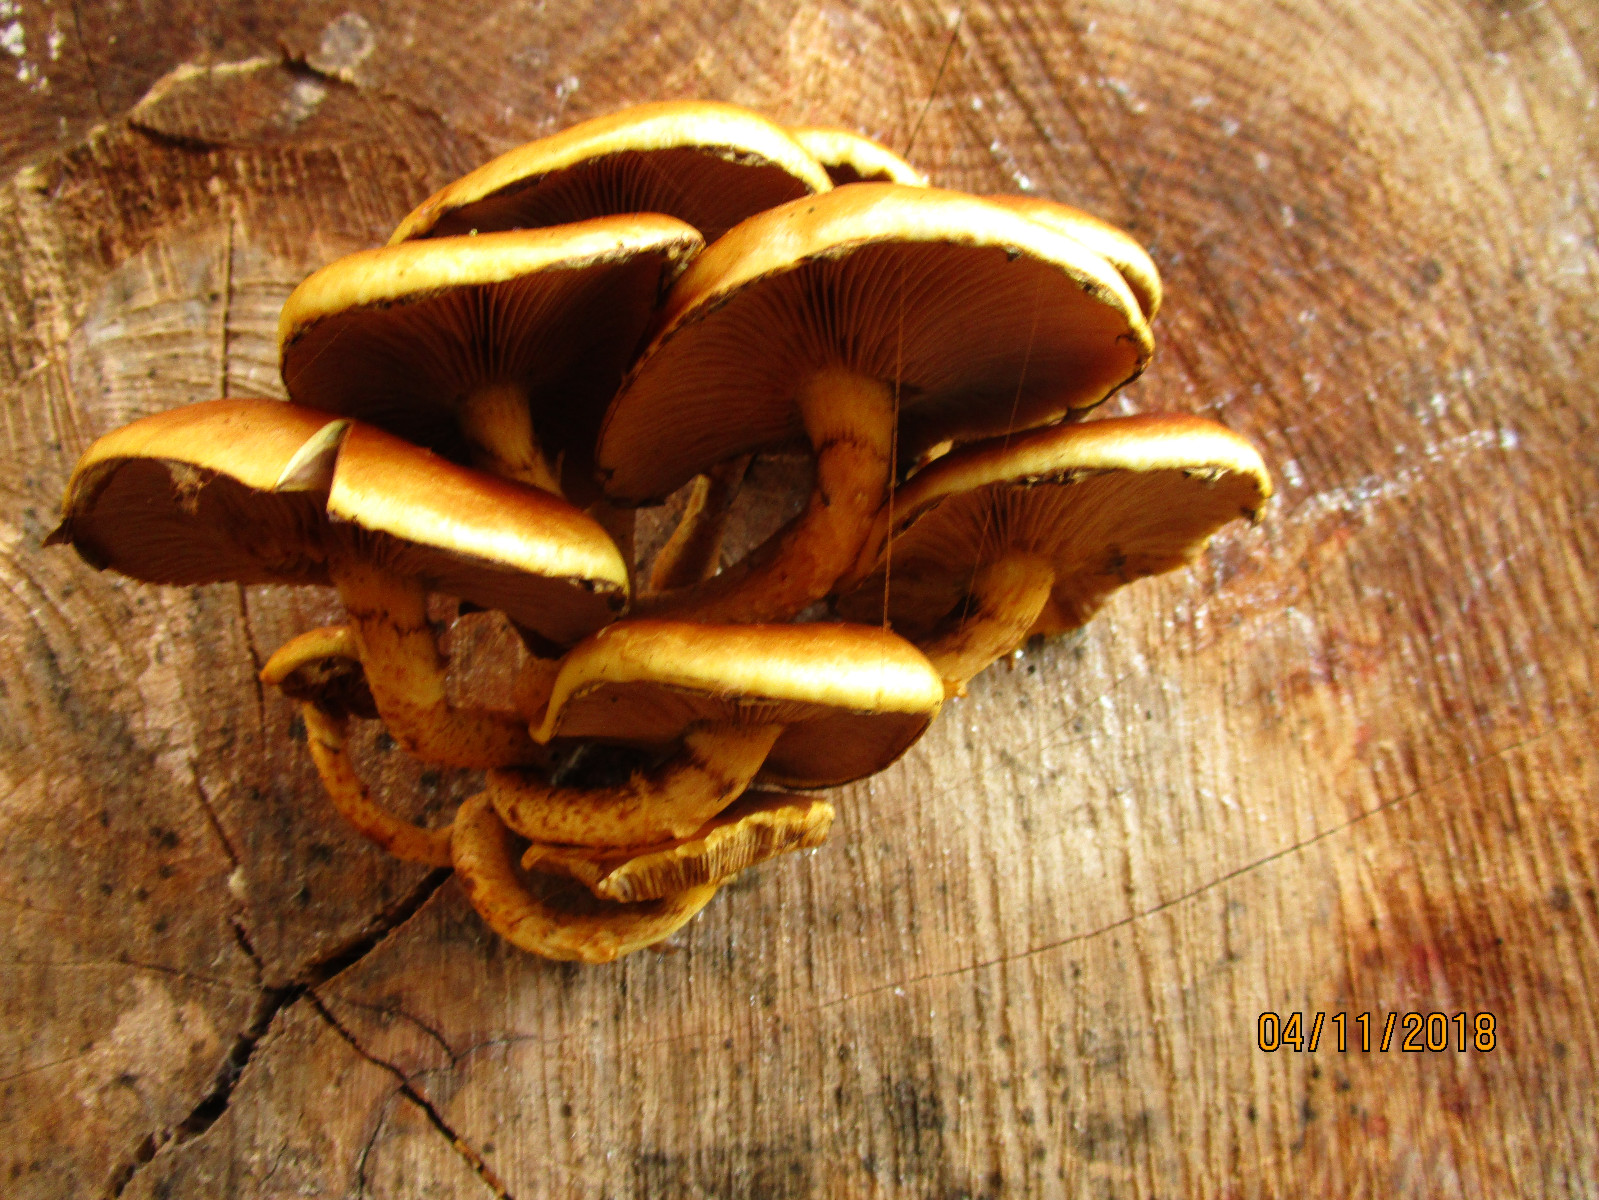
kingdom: Fungi
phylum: Basidiomycota
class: Agaricomycetes
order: Agaricales
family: Strophariaceae
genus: Pholiota
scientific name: Pholiota adiposa
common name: højtsiddende skælhat
